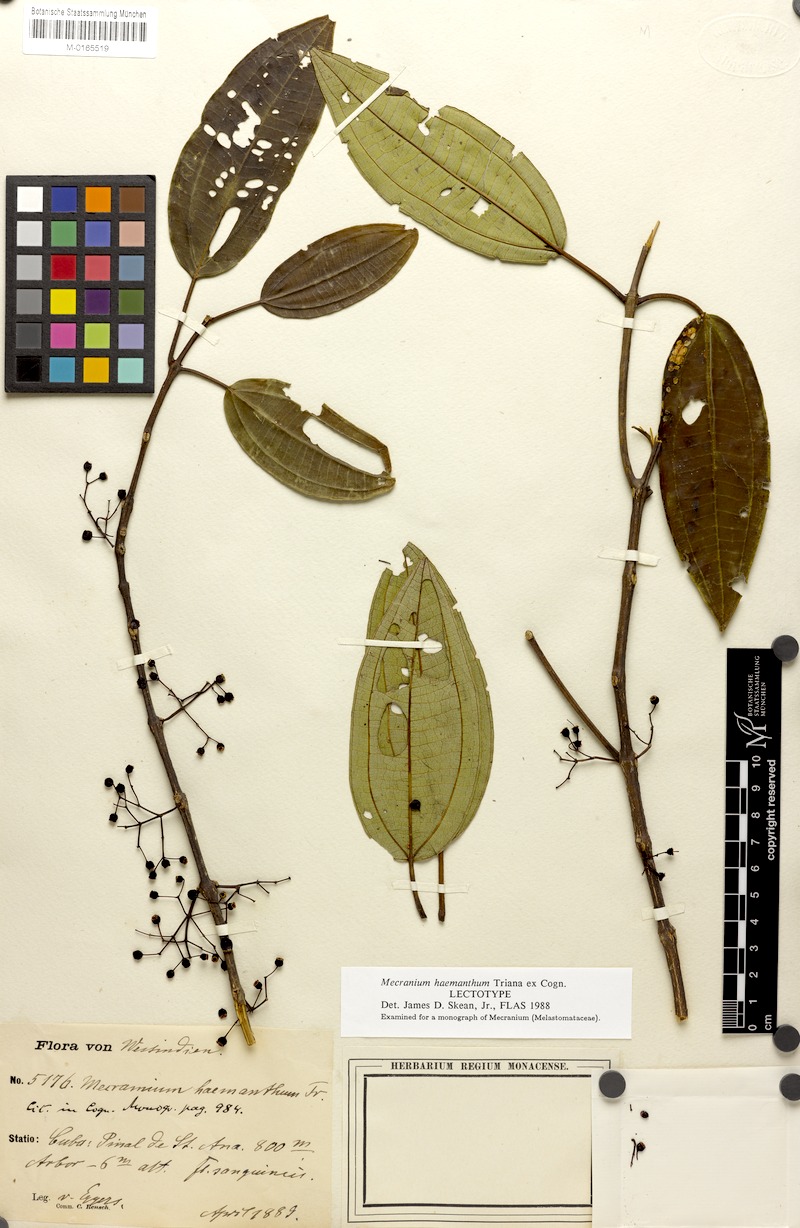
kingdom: Plantae
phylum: Tracheophyta
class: Magnoliopsida
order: Myrtales
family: Melastomataceae
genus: Miconia
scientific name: Miconia haemantha
